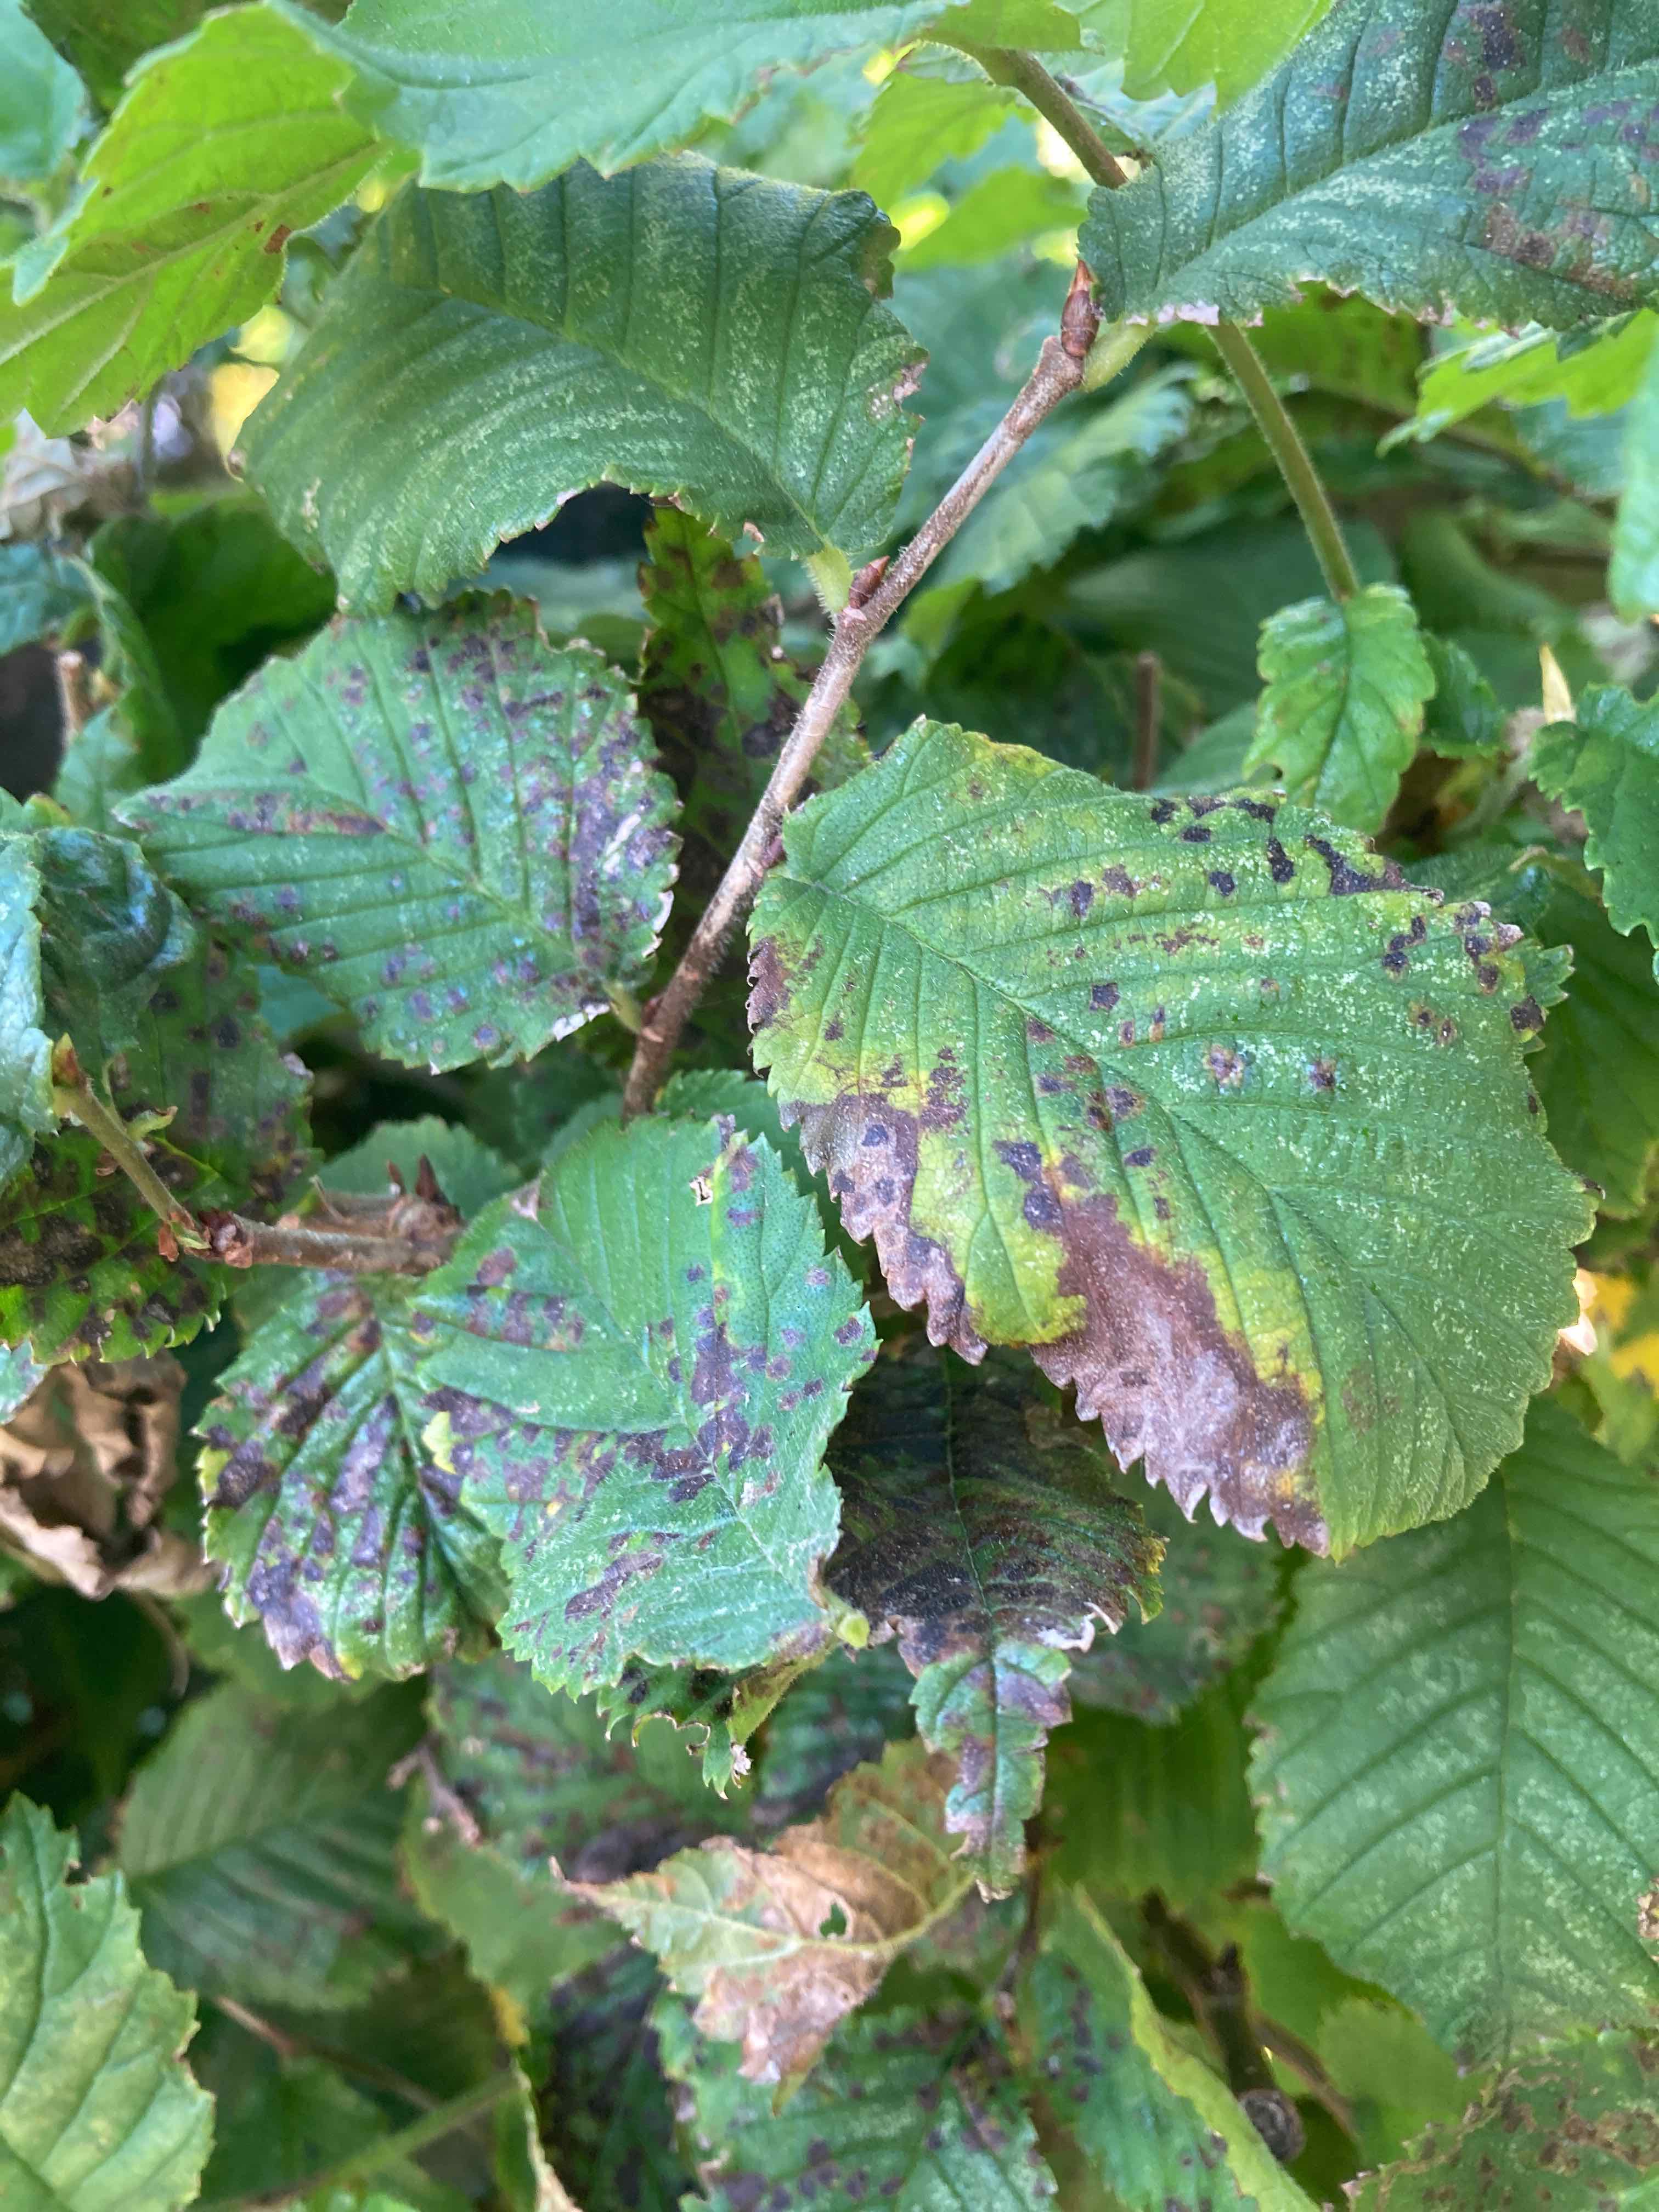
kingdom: Fungi
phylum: Ascomycota
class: Dothideomycetes
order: Mycosphaerellales
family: Mycosphaerellaceae
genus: Mycosphaerella
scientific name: Mycosphaerella ulmi
